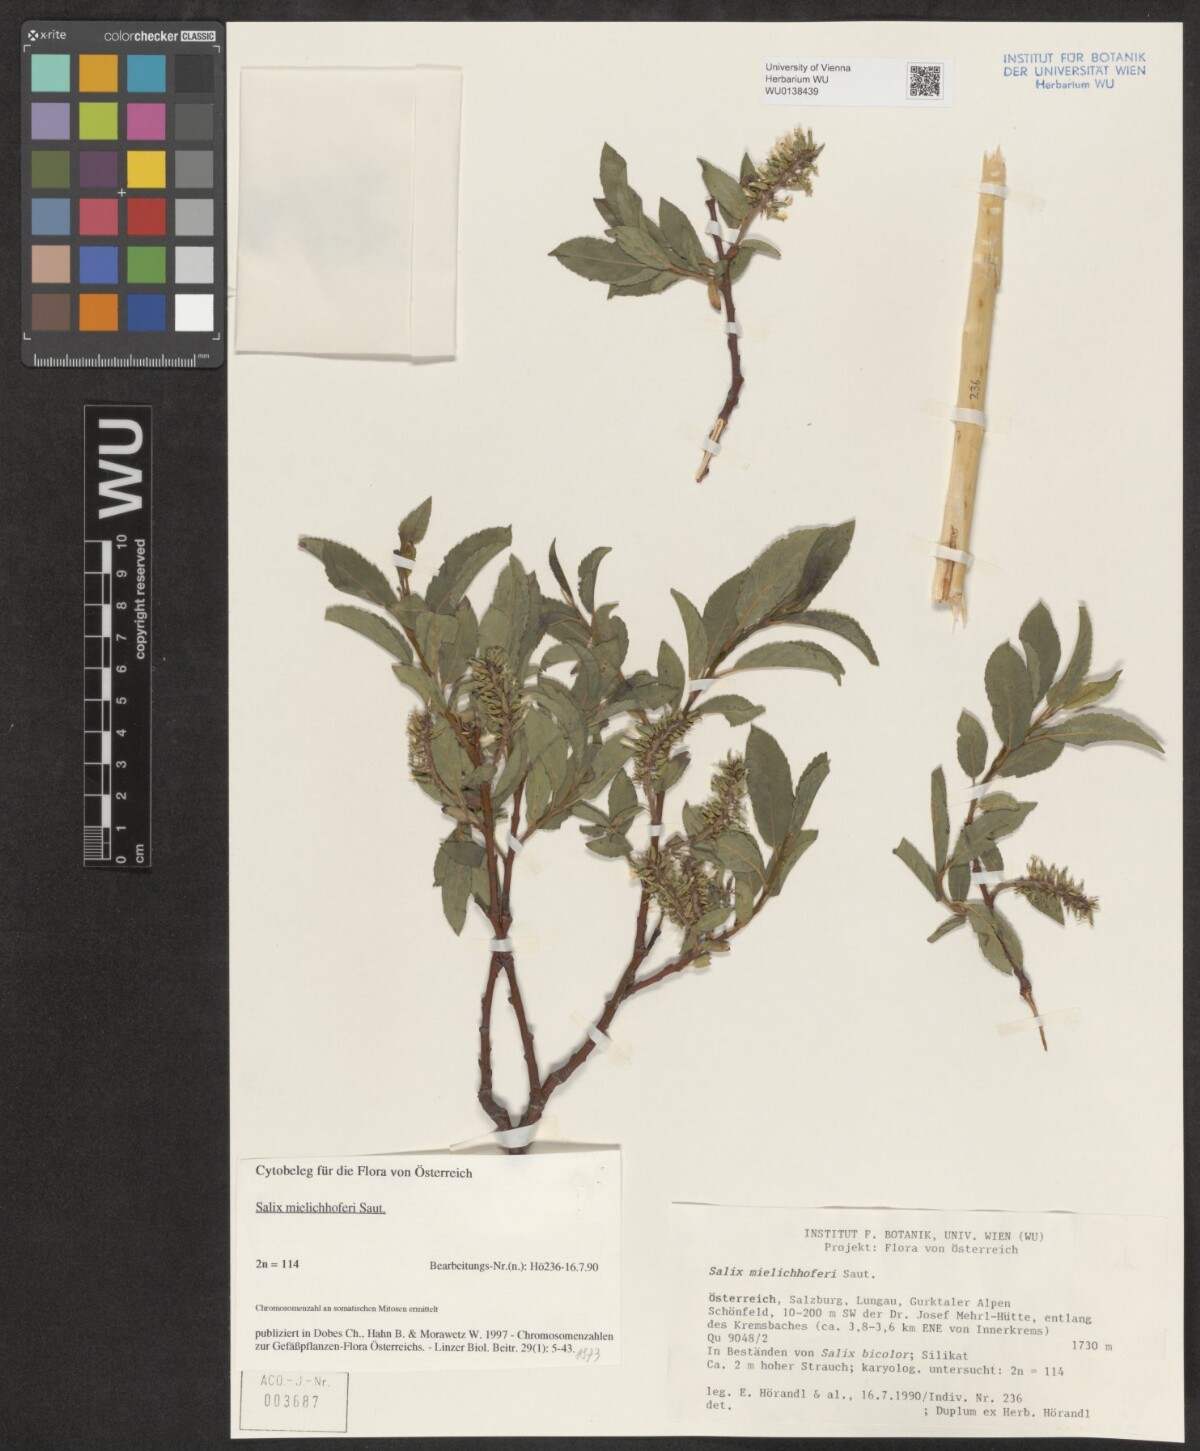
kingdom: Plantae
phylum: Tracheophyta
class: Magnoliopsida
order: Malpighiales
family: Salicaceae
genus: Salix
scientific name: Salix mielichhoferi
